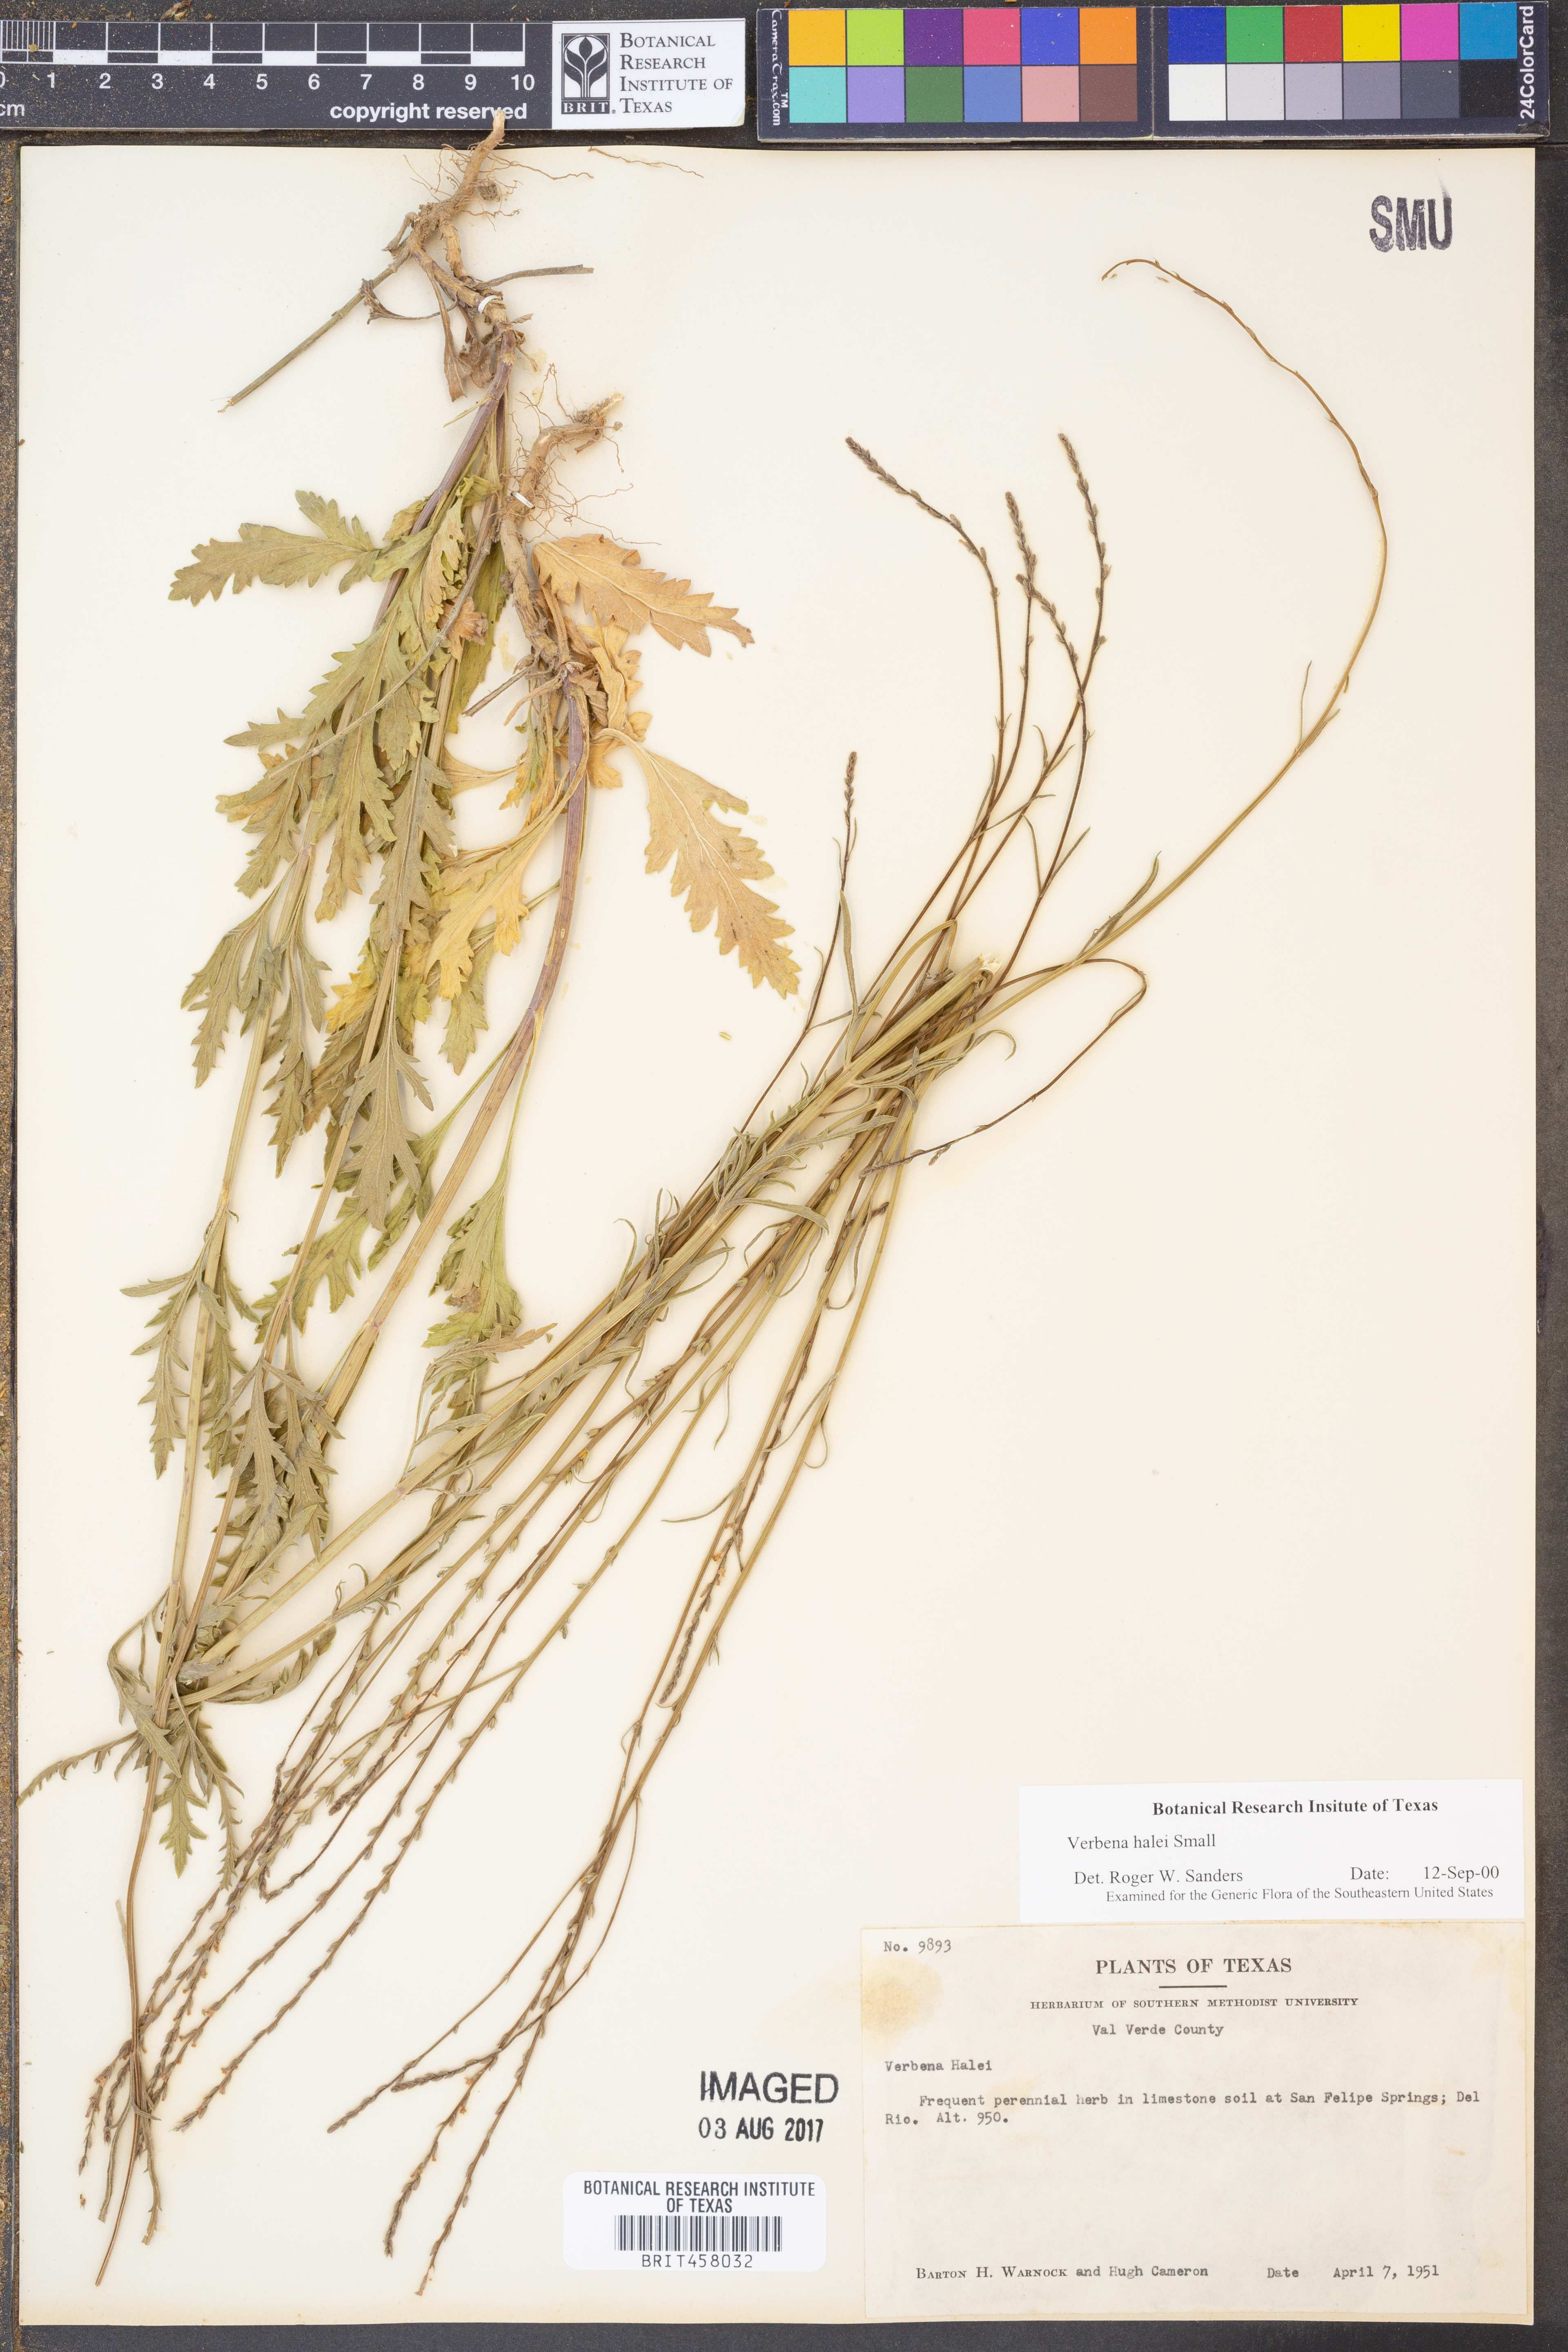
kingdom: Plantae
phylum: Tracheophyta
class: Magnoliopsida
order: Lamiales
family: Verbenaceae
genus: Verbena
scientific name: Verbena halei
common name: Texas vervain
